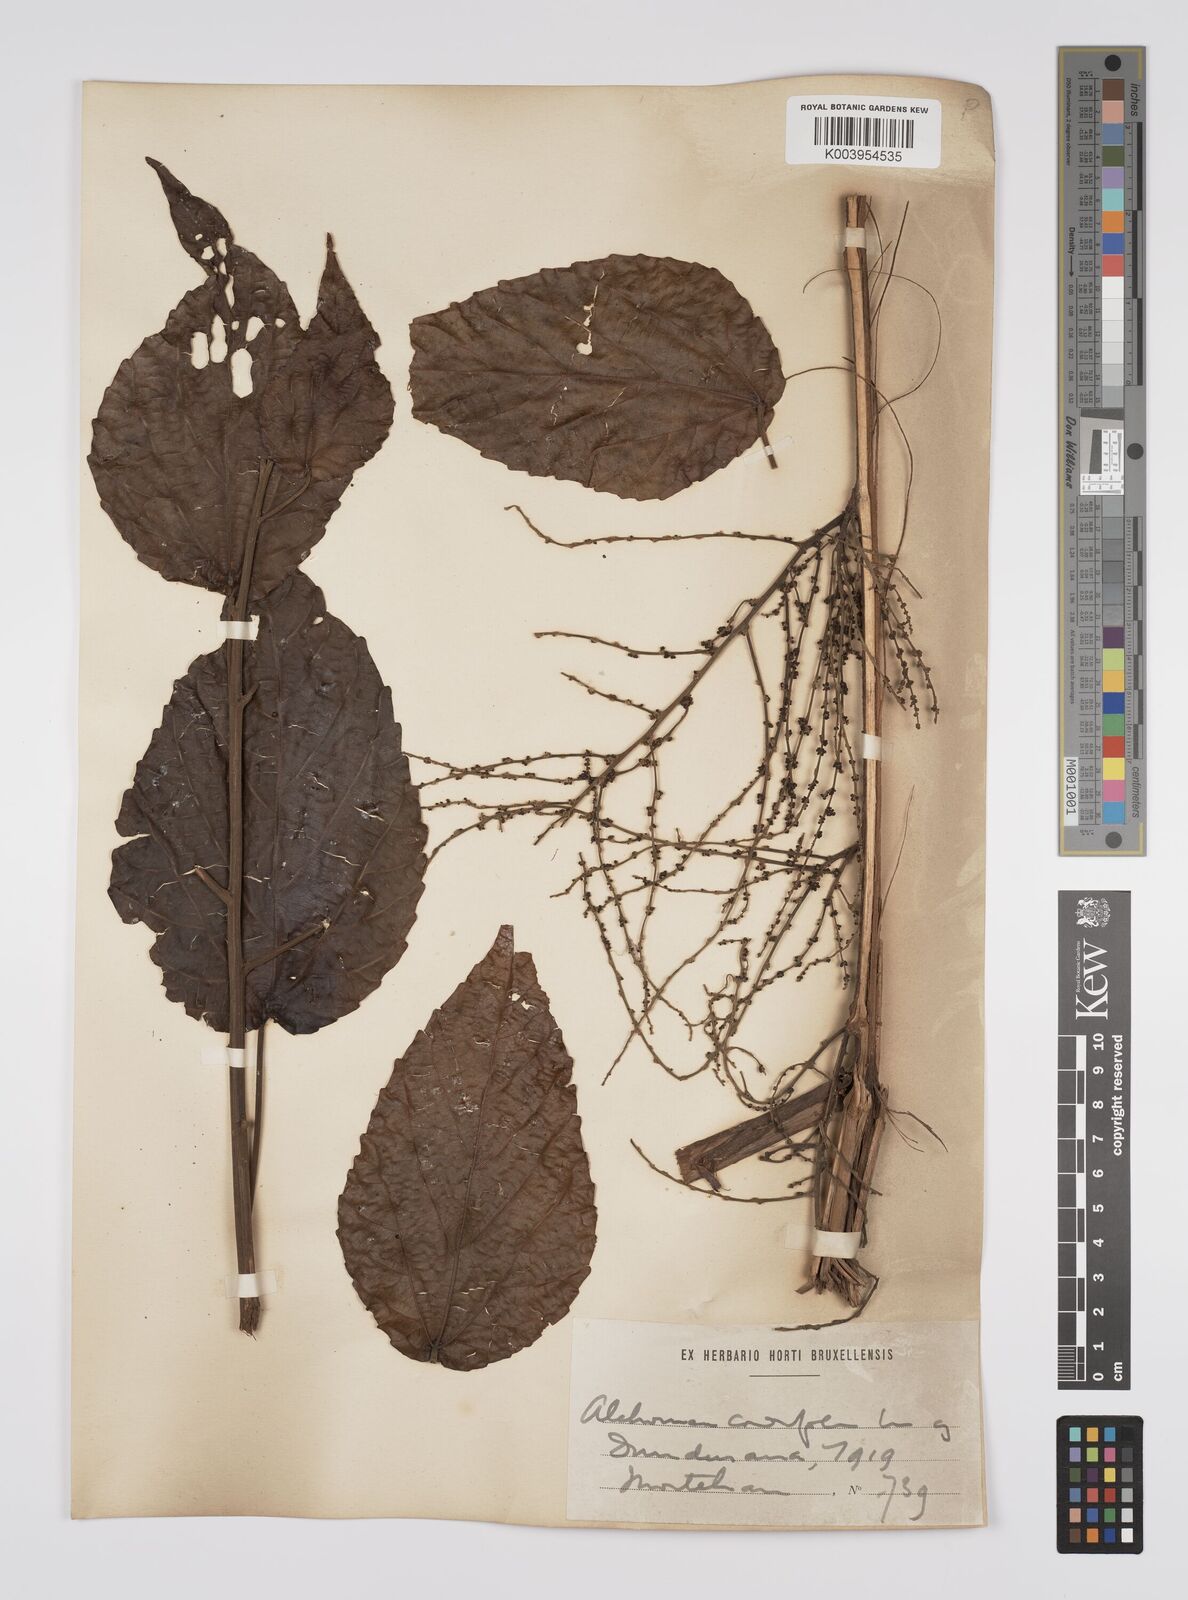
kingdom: Plantae
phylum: Tracheophyta
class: Magnoliopsida
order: Malpighiales
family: Euphorbiaceae
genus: Alchornea
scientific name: Alchornea cordifolia
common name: Christmasbush
